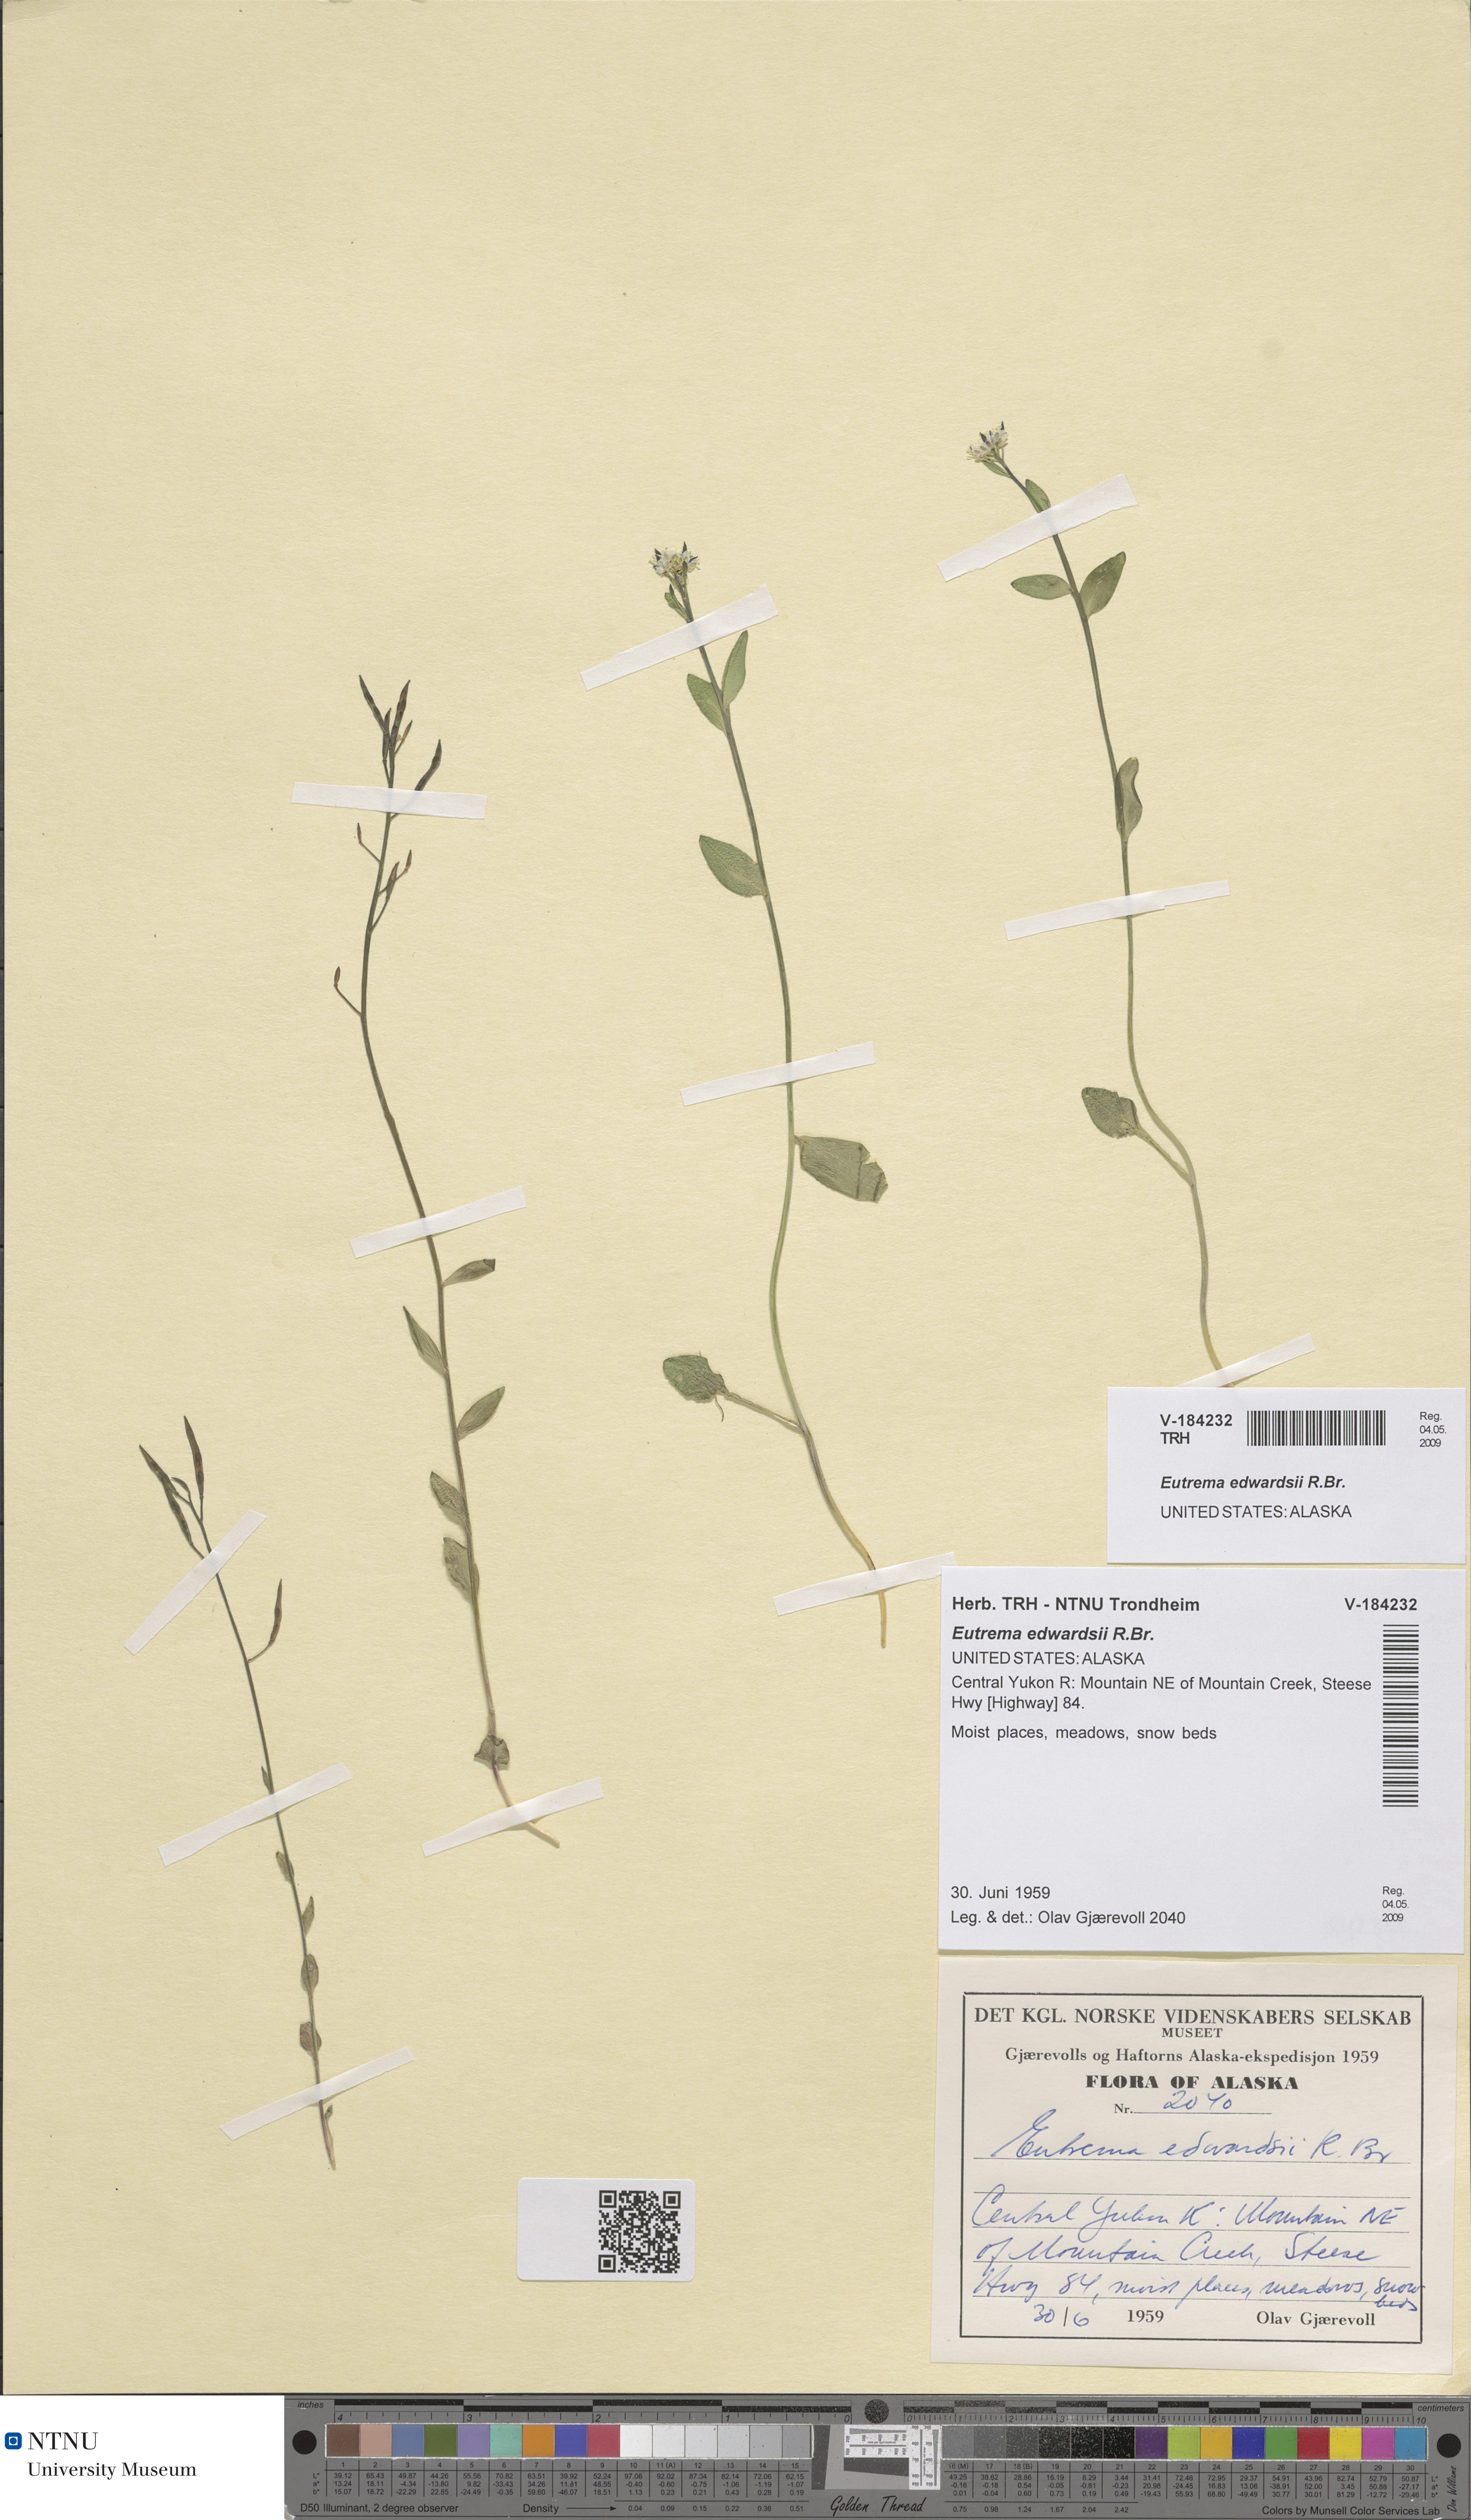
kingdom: Plantae
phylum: Tracheophyta
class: Magnoliopsida
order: Brassicales
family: Brassicaceae
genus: Eutrema
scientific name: Eutrema edwardsii
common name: Penland alpine fen mustard
